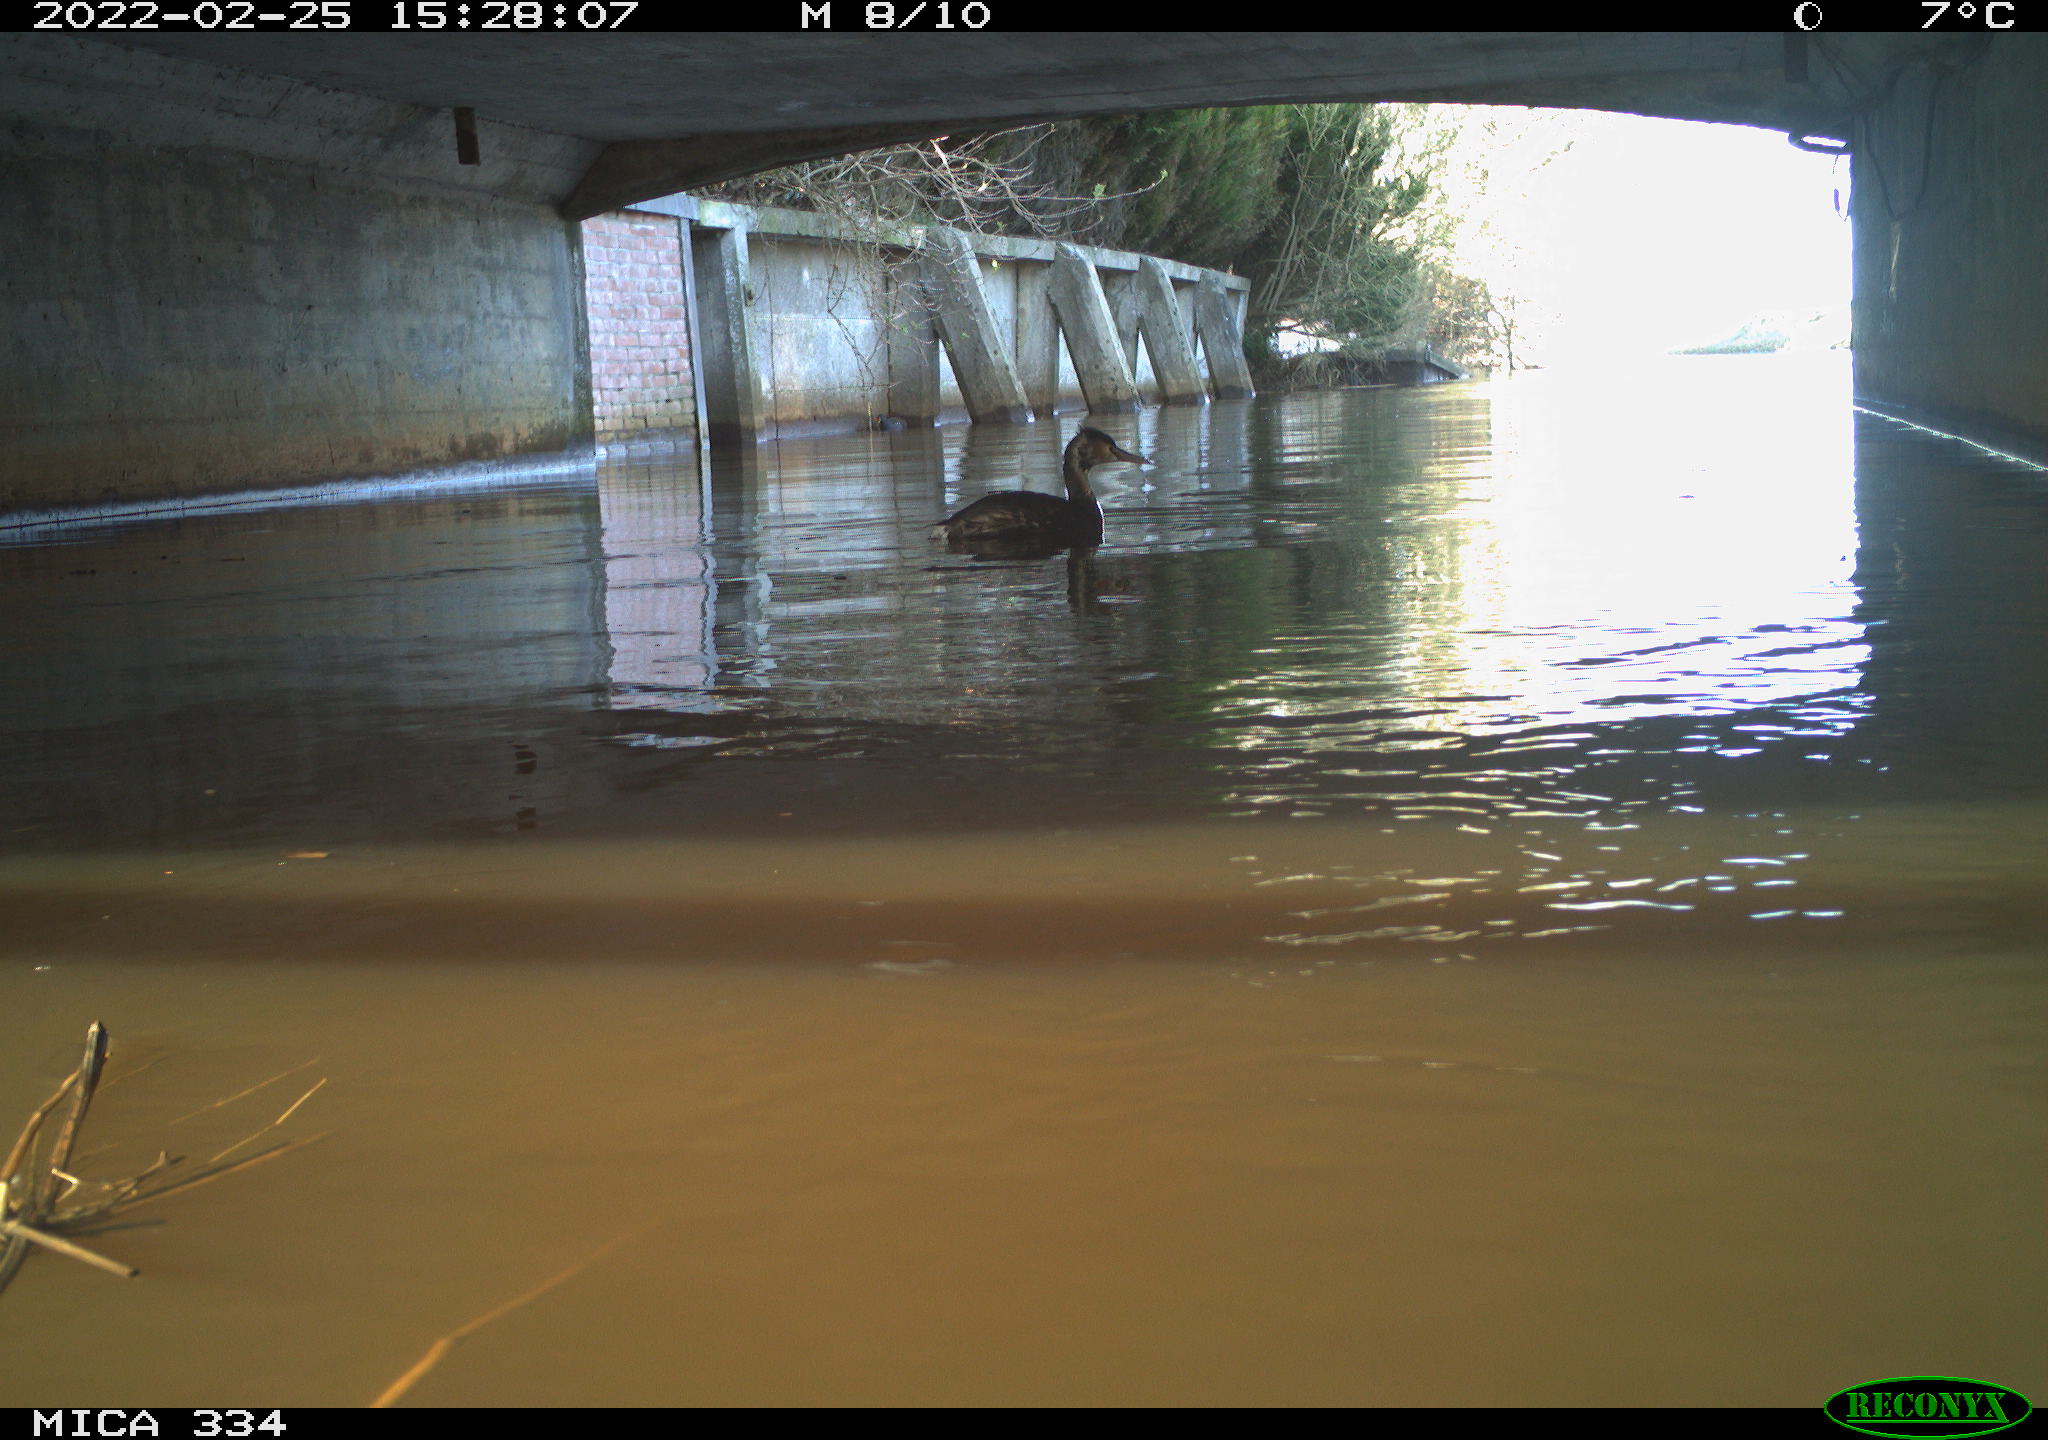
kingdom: Animalia
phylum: Chordata
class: Aves
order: Podicipediformes
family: Podicipedidae
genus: Podiceps
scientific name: Podiceps cristatus
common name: Great crested grebe
